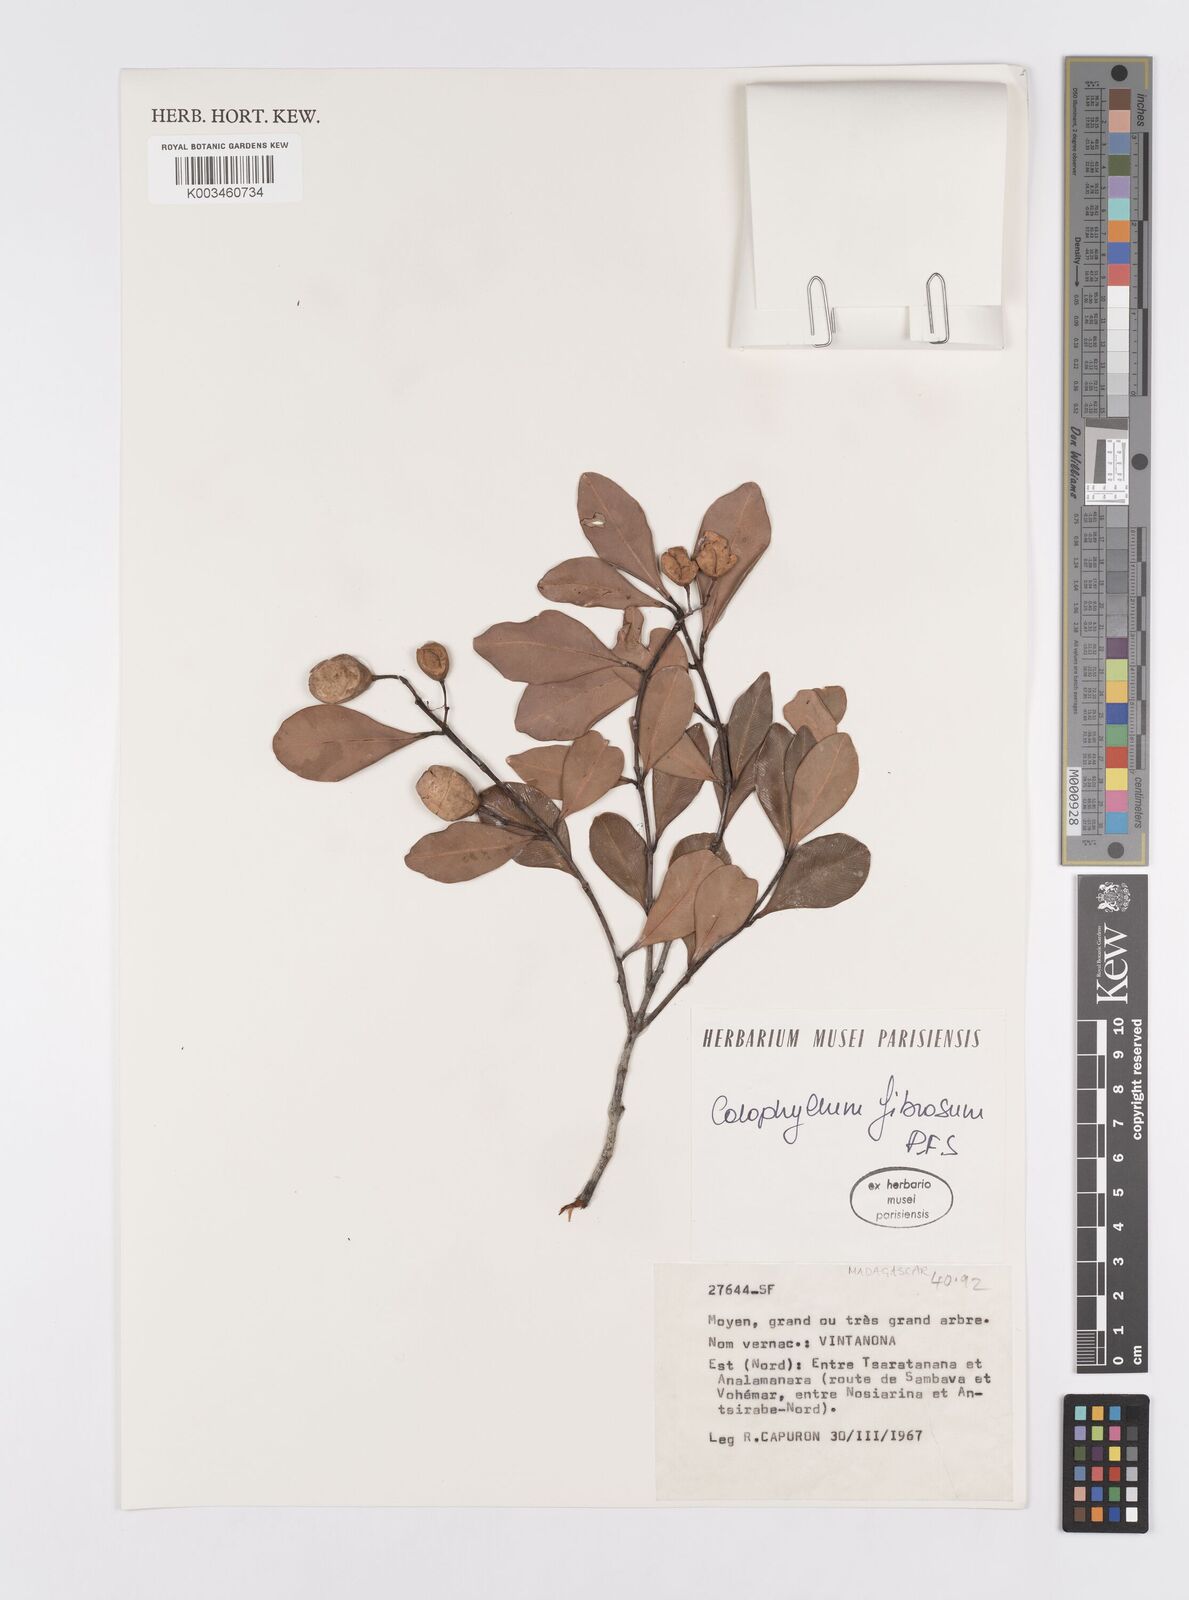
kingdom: Plantae
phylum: Tracheophyta
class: Magnoliopsida
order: Malpighiales
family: Calophyllaceae
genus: Calophyllum
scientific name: Calophyllum fibrosum
